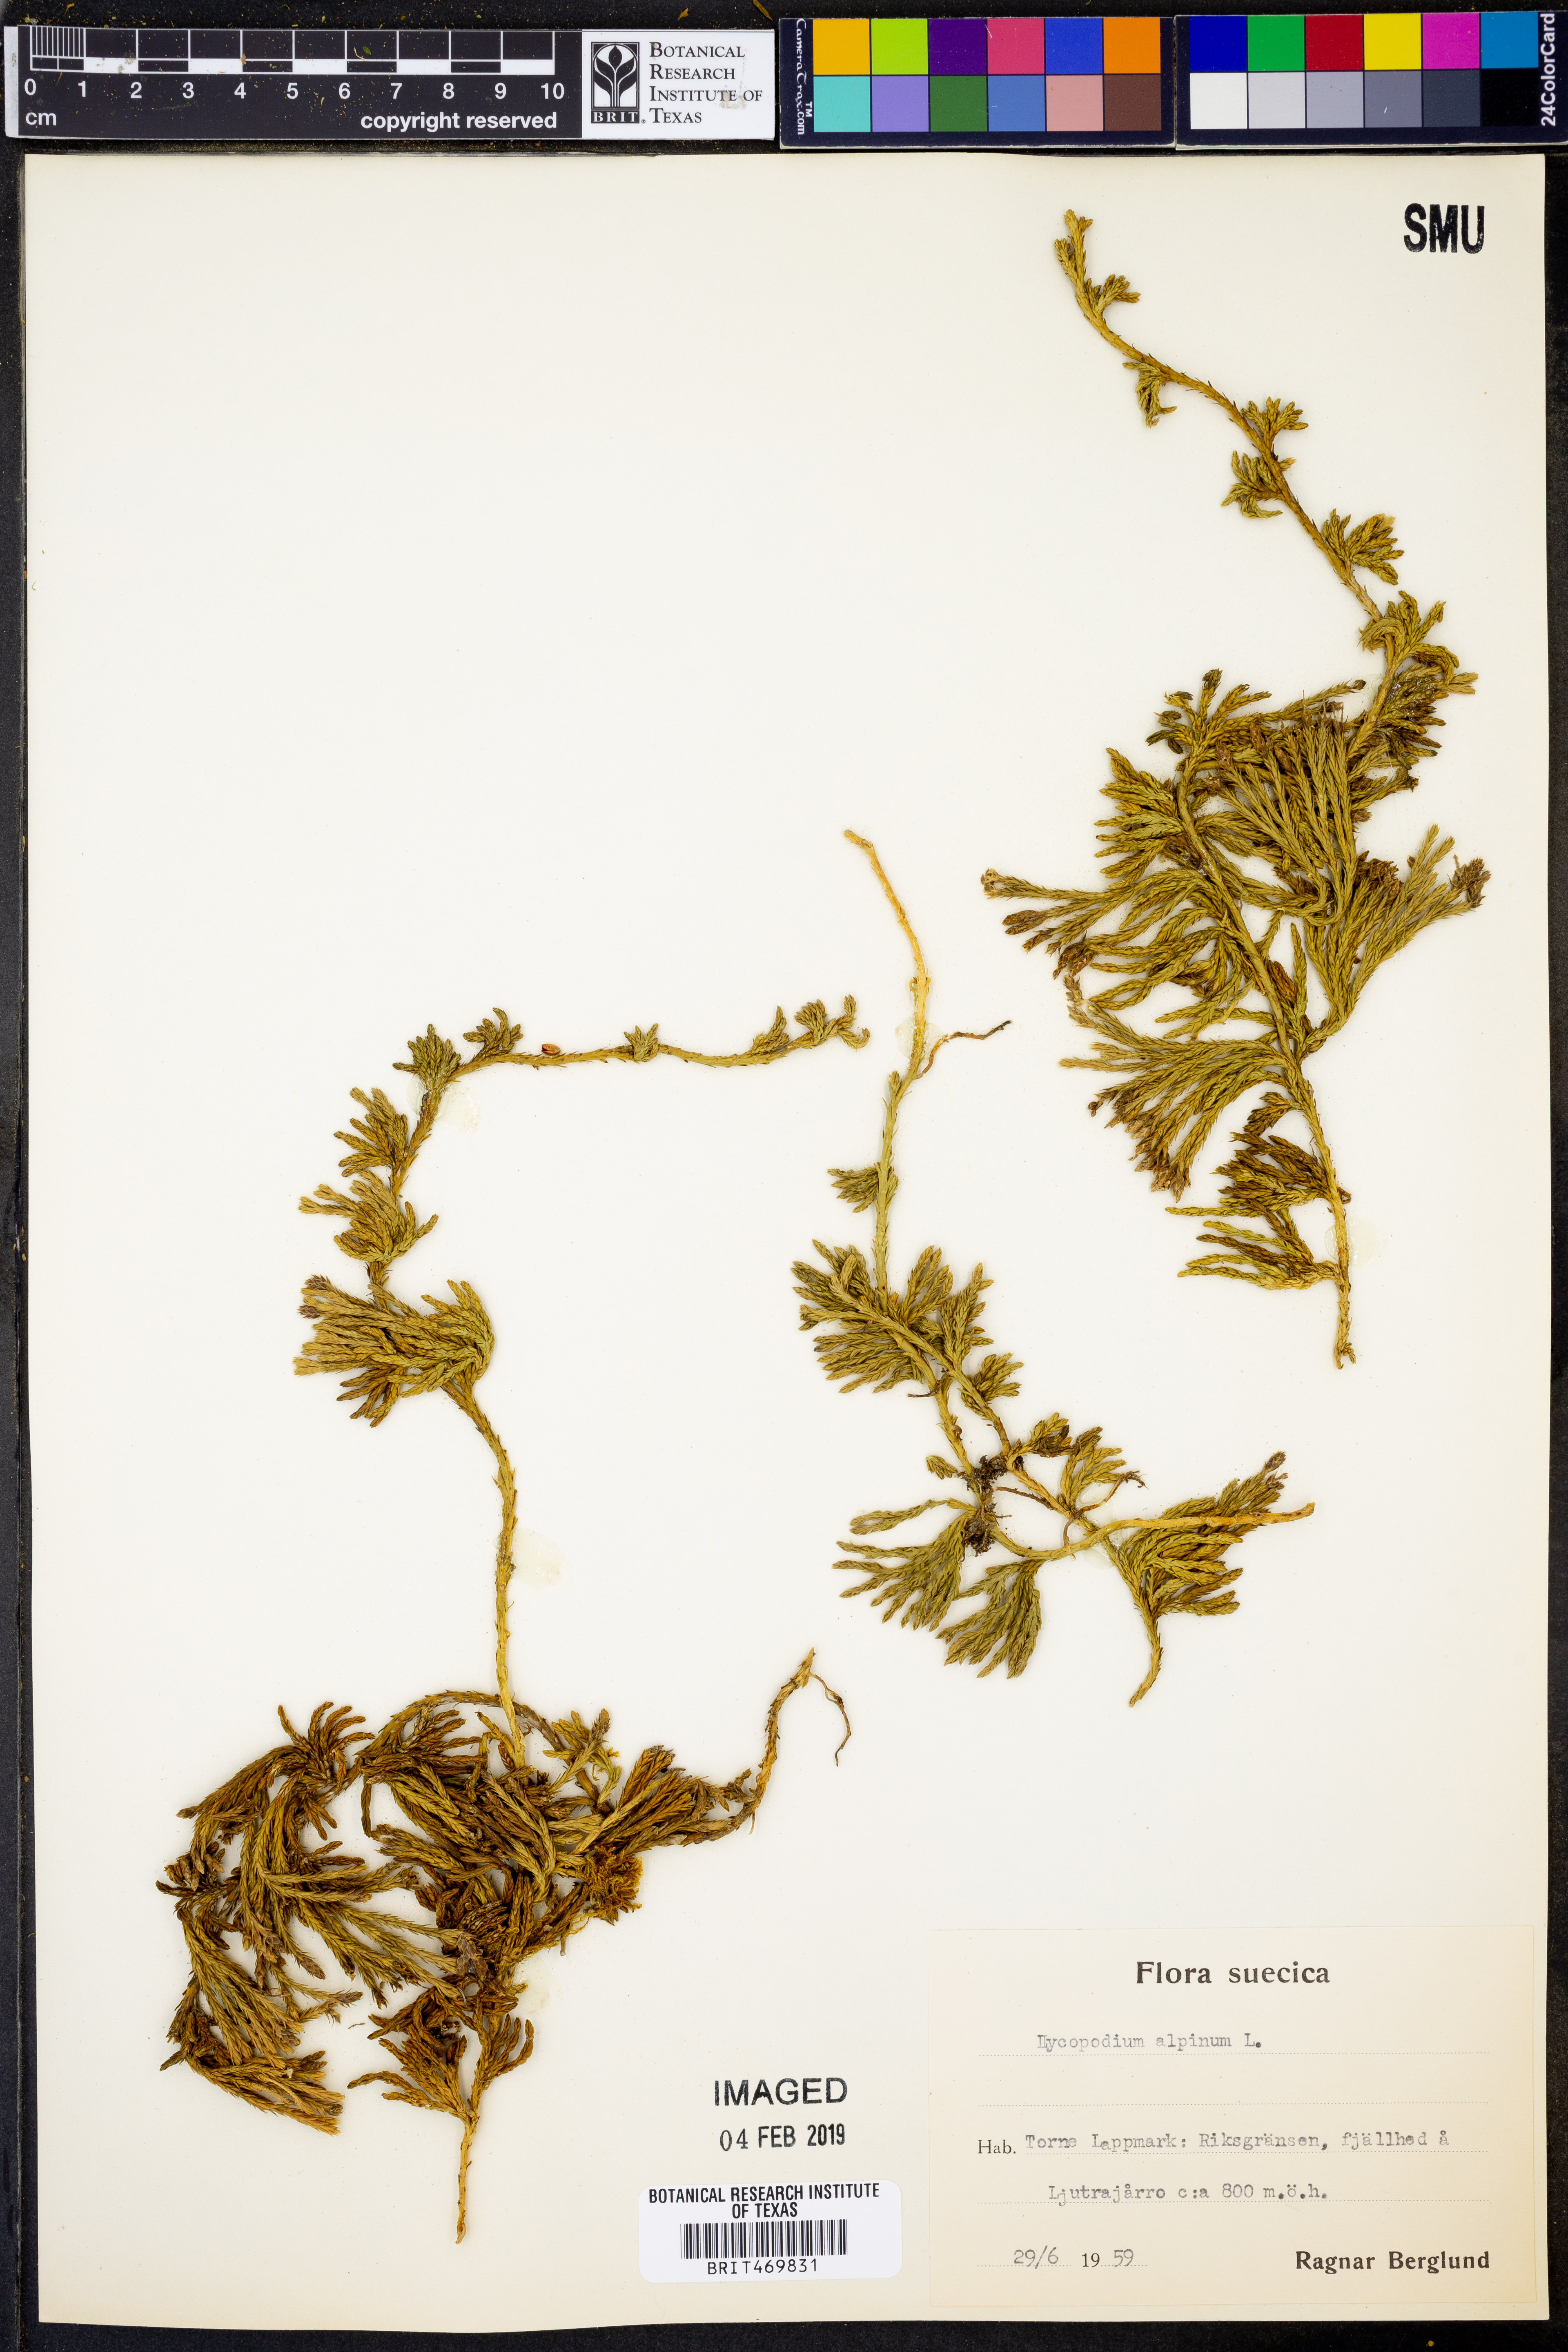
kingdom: Plantae
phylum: Tracheophyta
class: Lycopodiopsida
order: Lycopodiales
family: Lycopodiaceae
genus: Diphasiastrum
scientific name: Diphasiastrum alpinum
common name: Alpine clubmoss
